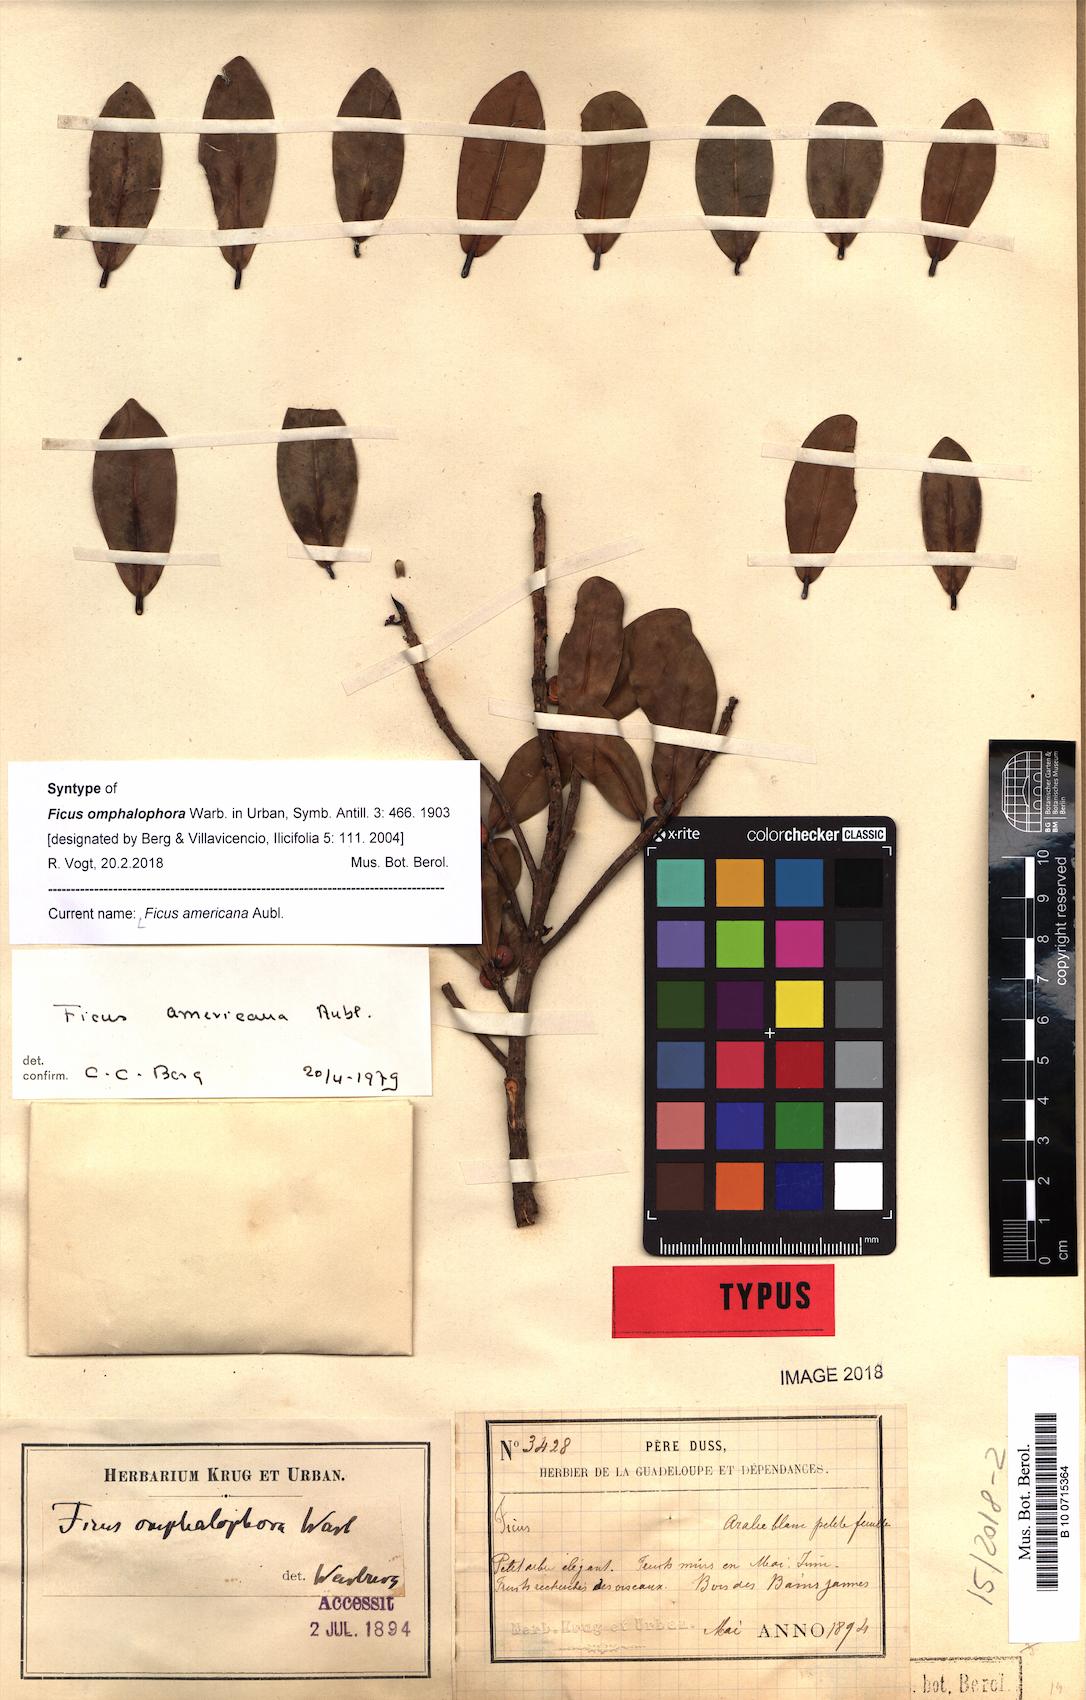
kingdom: Plantae
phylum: Tracheophyta
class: Magnoliopsida
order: Rosales
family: Moraceae
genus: Ficus
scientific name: Ficus americana
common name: Jamaican cherry fig
